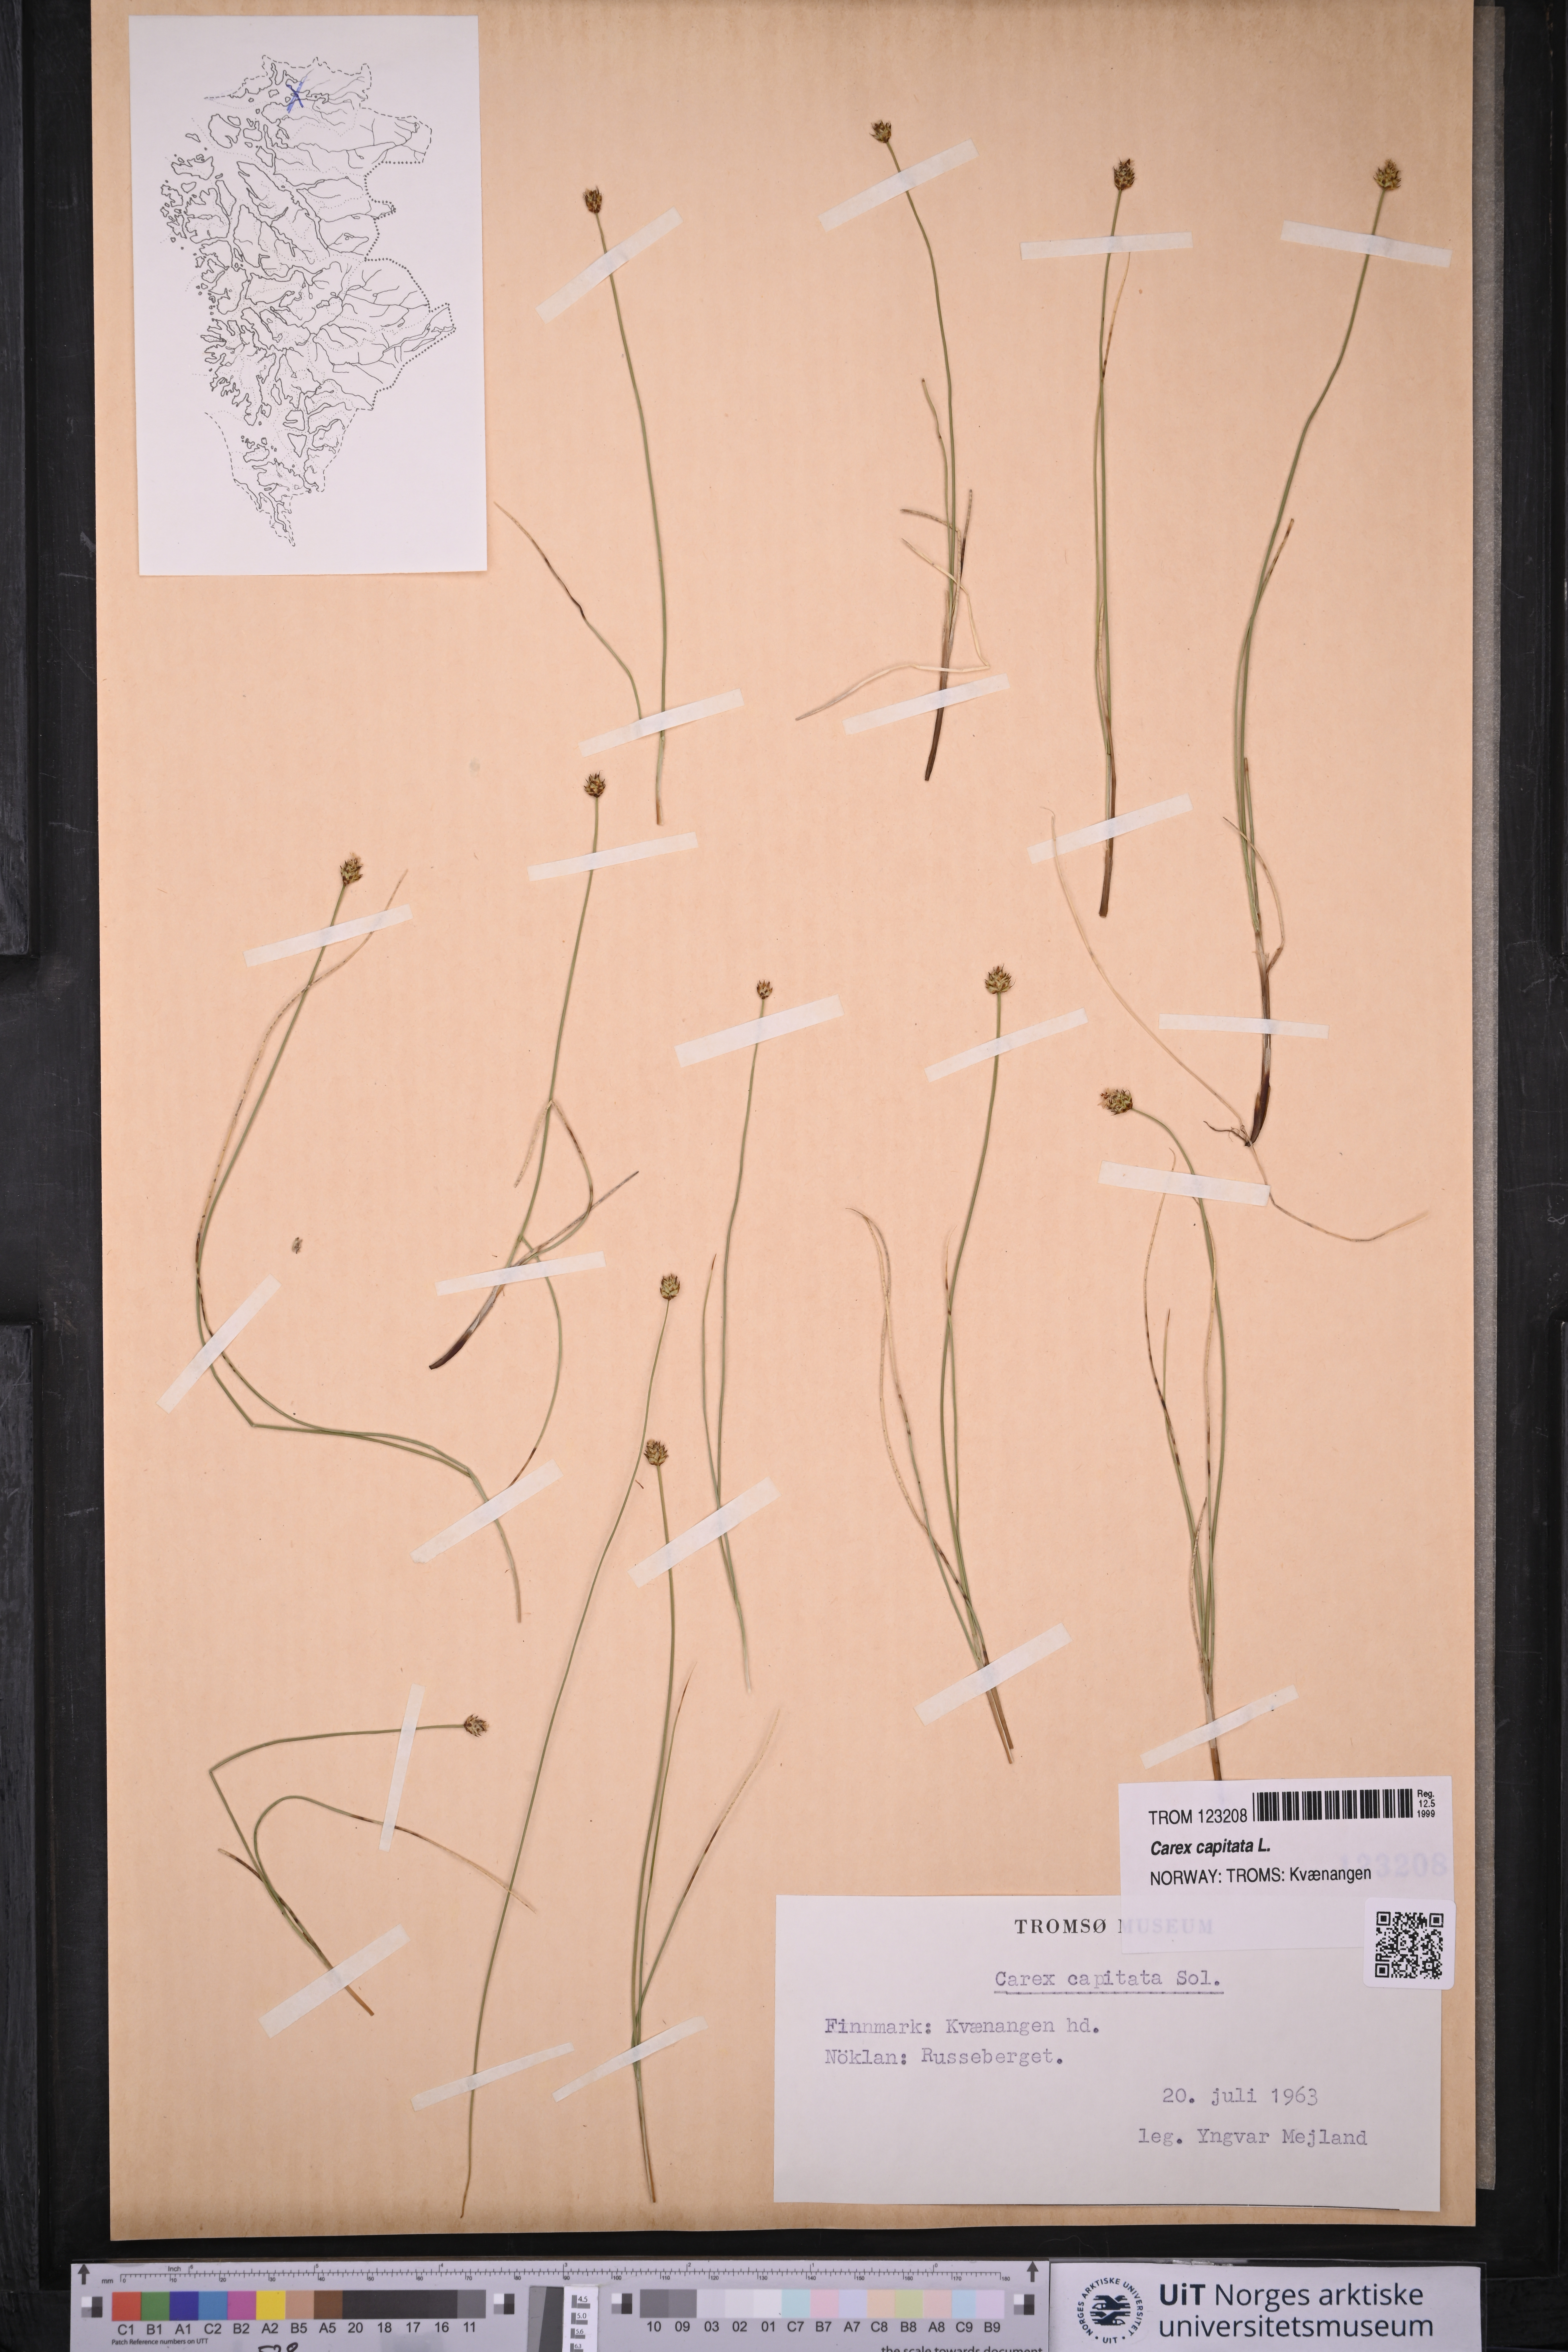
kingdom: Plantae
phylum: Tracheophyta
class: Liliopsida
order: Poales
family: Cyperaceae
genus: Carex
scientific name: Carex capitata
